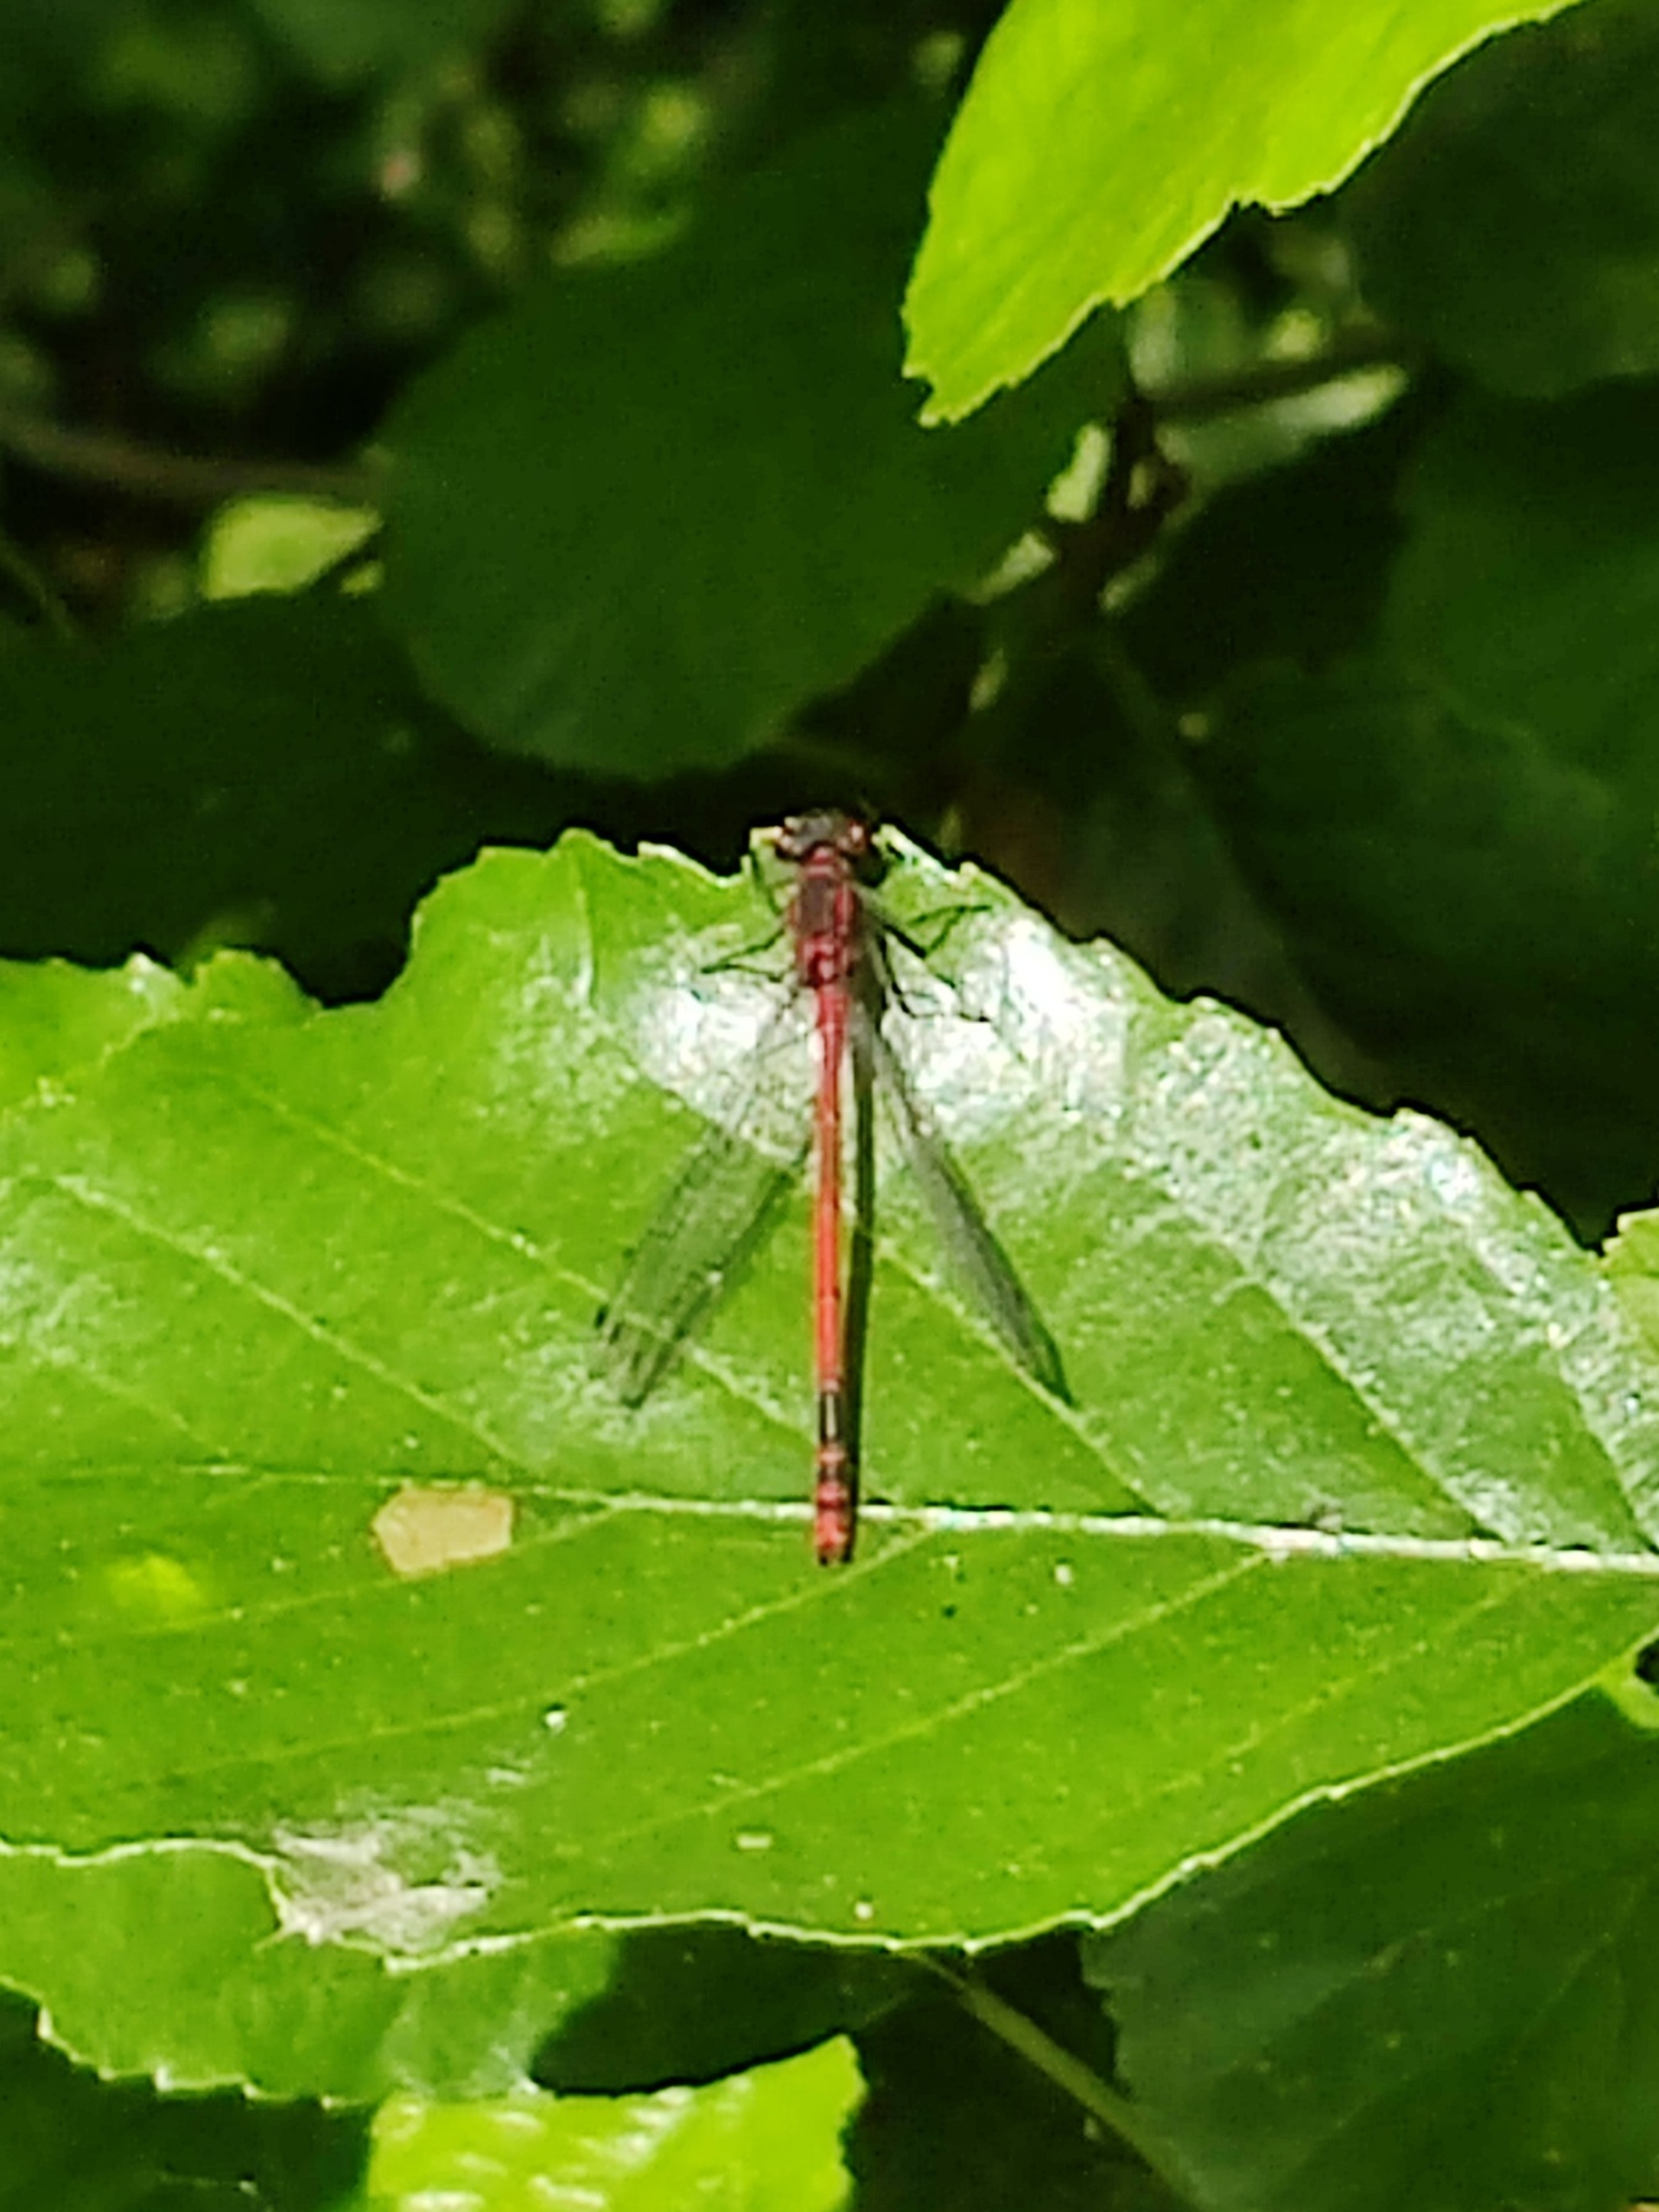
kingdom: Animalia
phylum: Arthropoda
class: Insecta
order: Odonata
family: Coenagrionidae
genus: Pyrrhosoma
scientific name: Pyrrhosoma nymphula
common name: Rød vandnymfe
